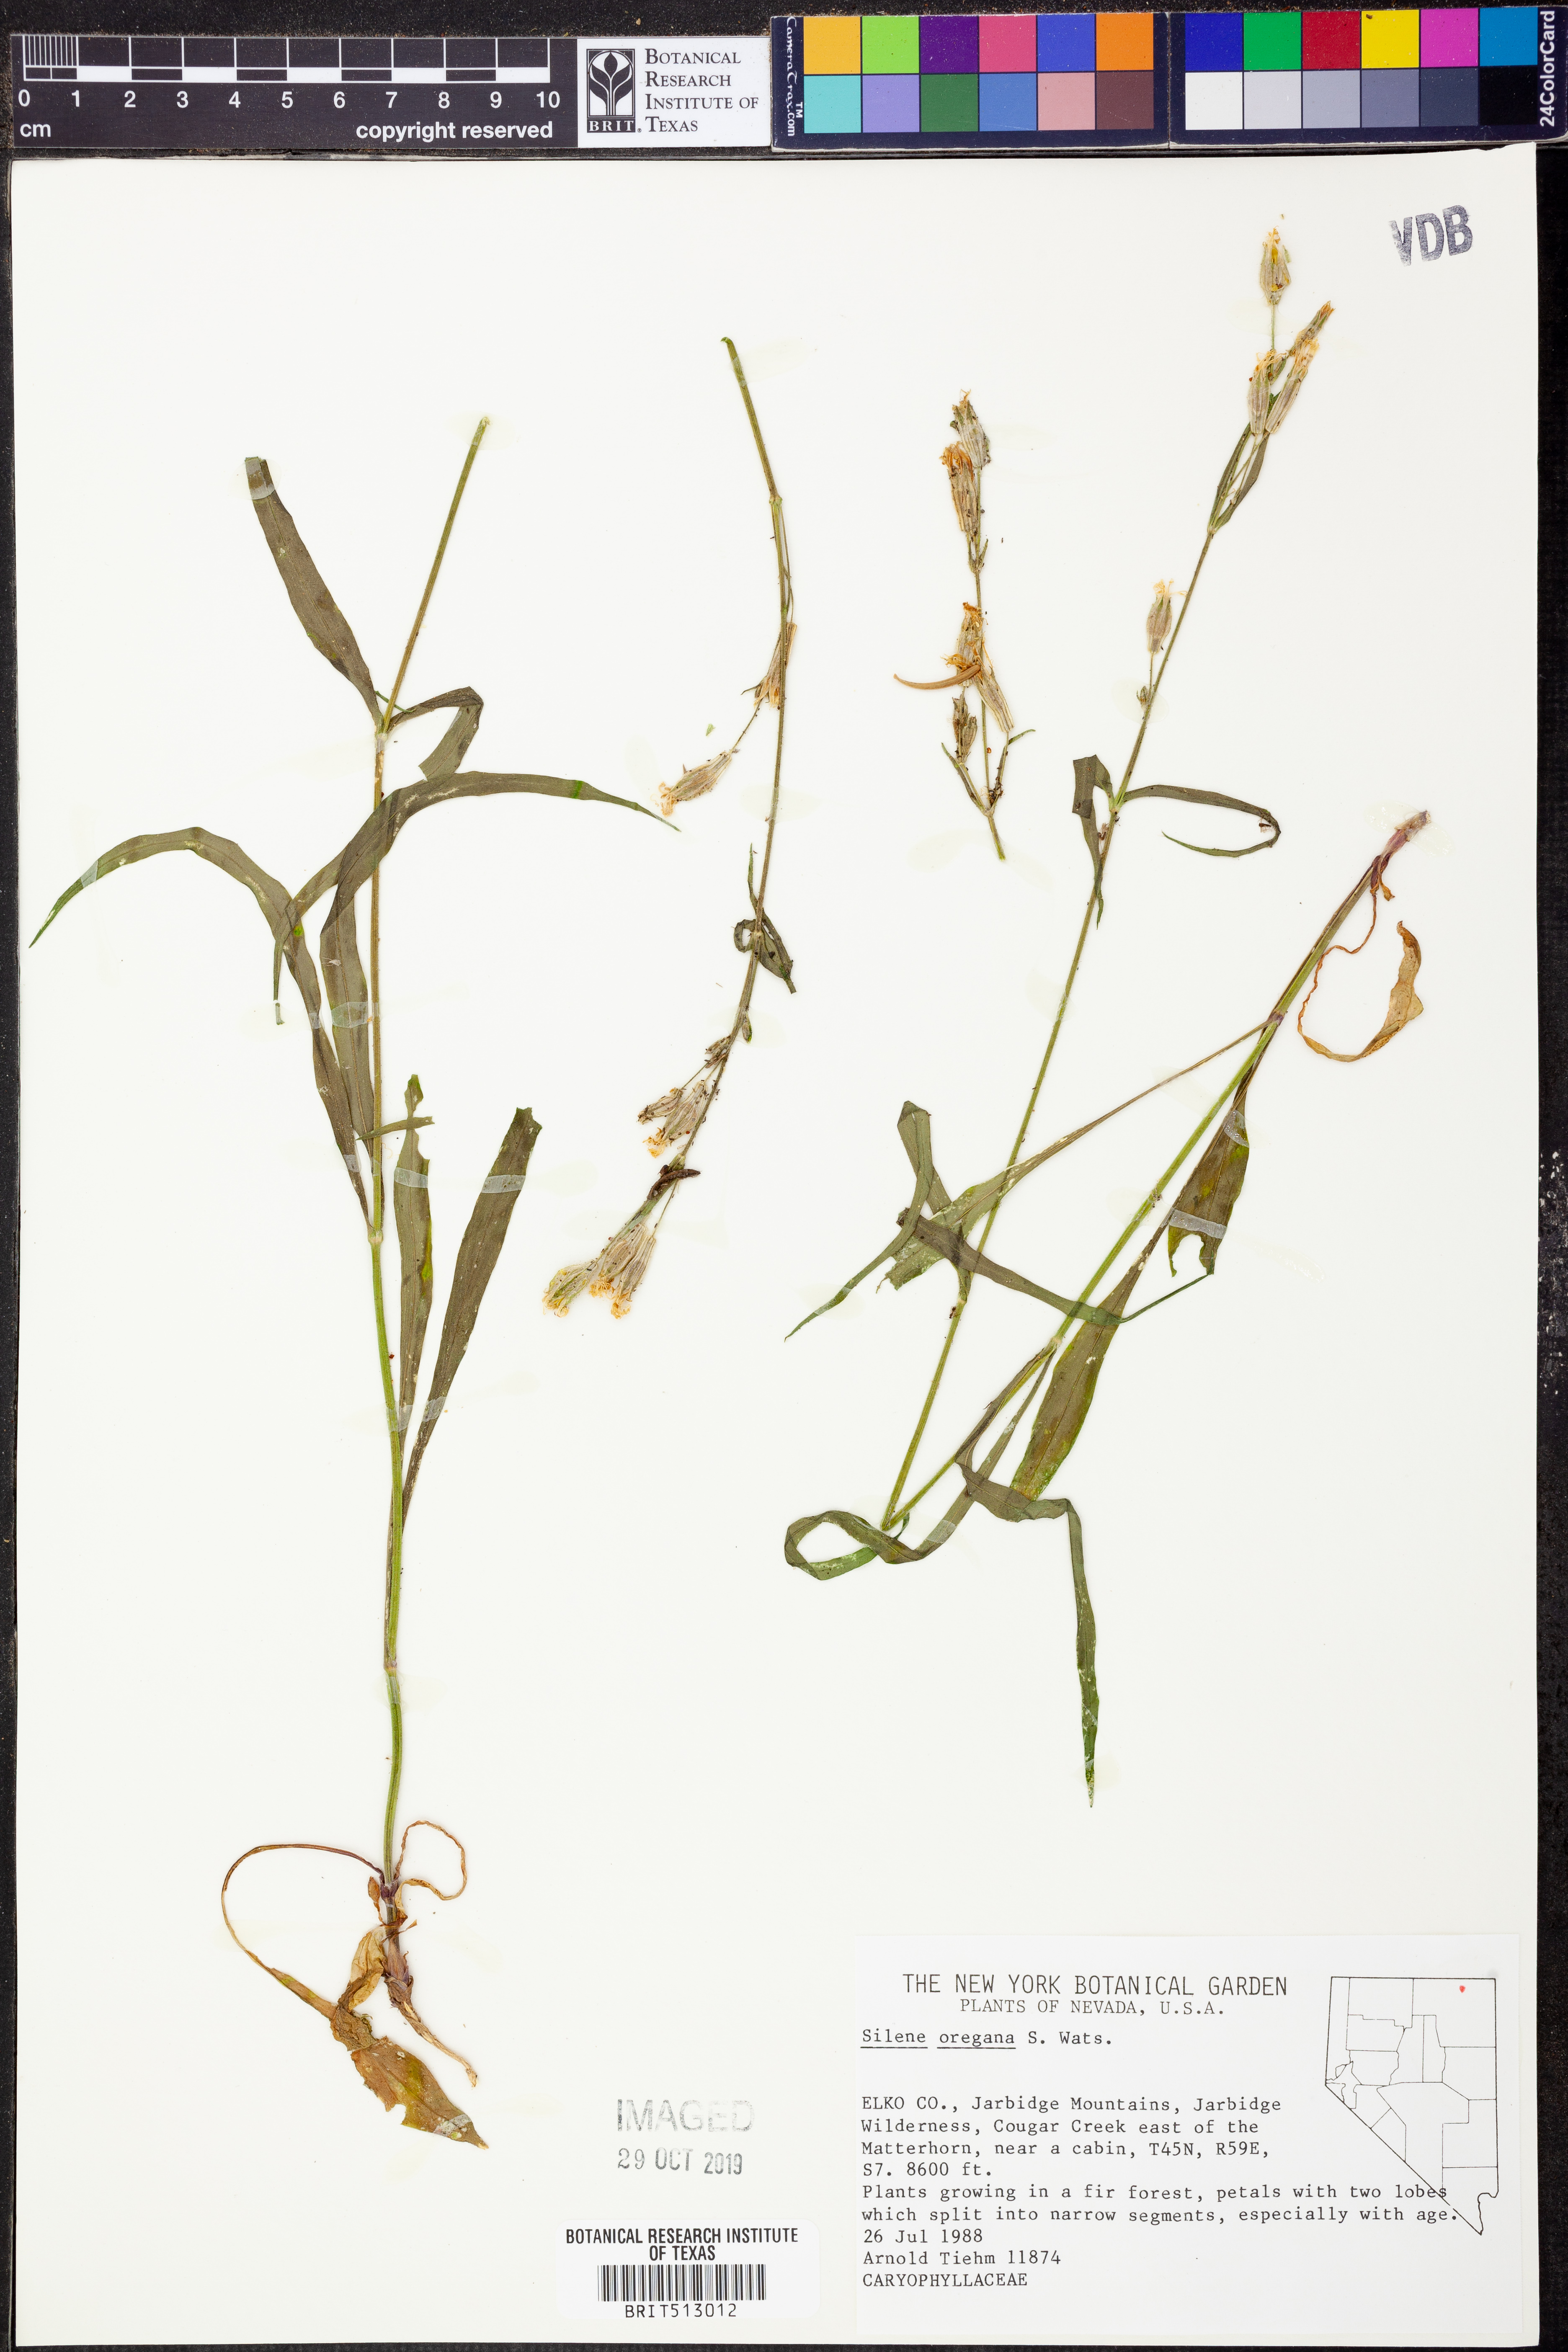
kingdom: Plantae
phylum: Tracheophyta
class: Magnoliopsida
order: Caryophyllales
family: Caryophyllaceae
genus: Silene
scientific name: Silene oregana
